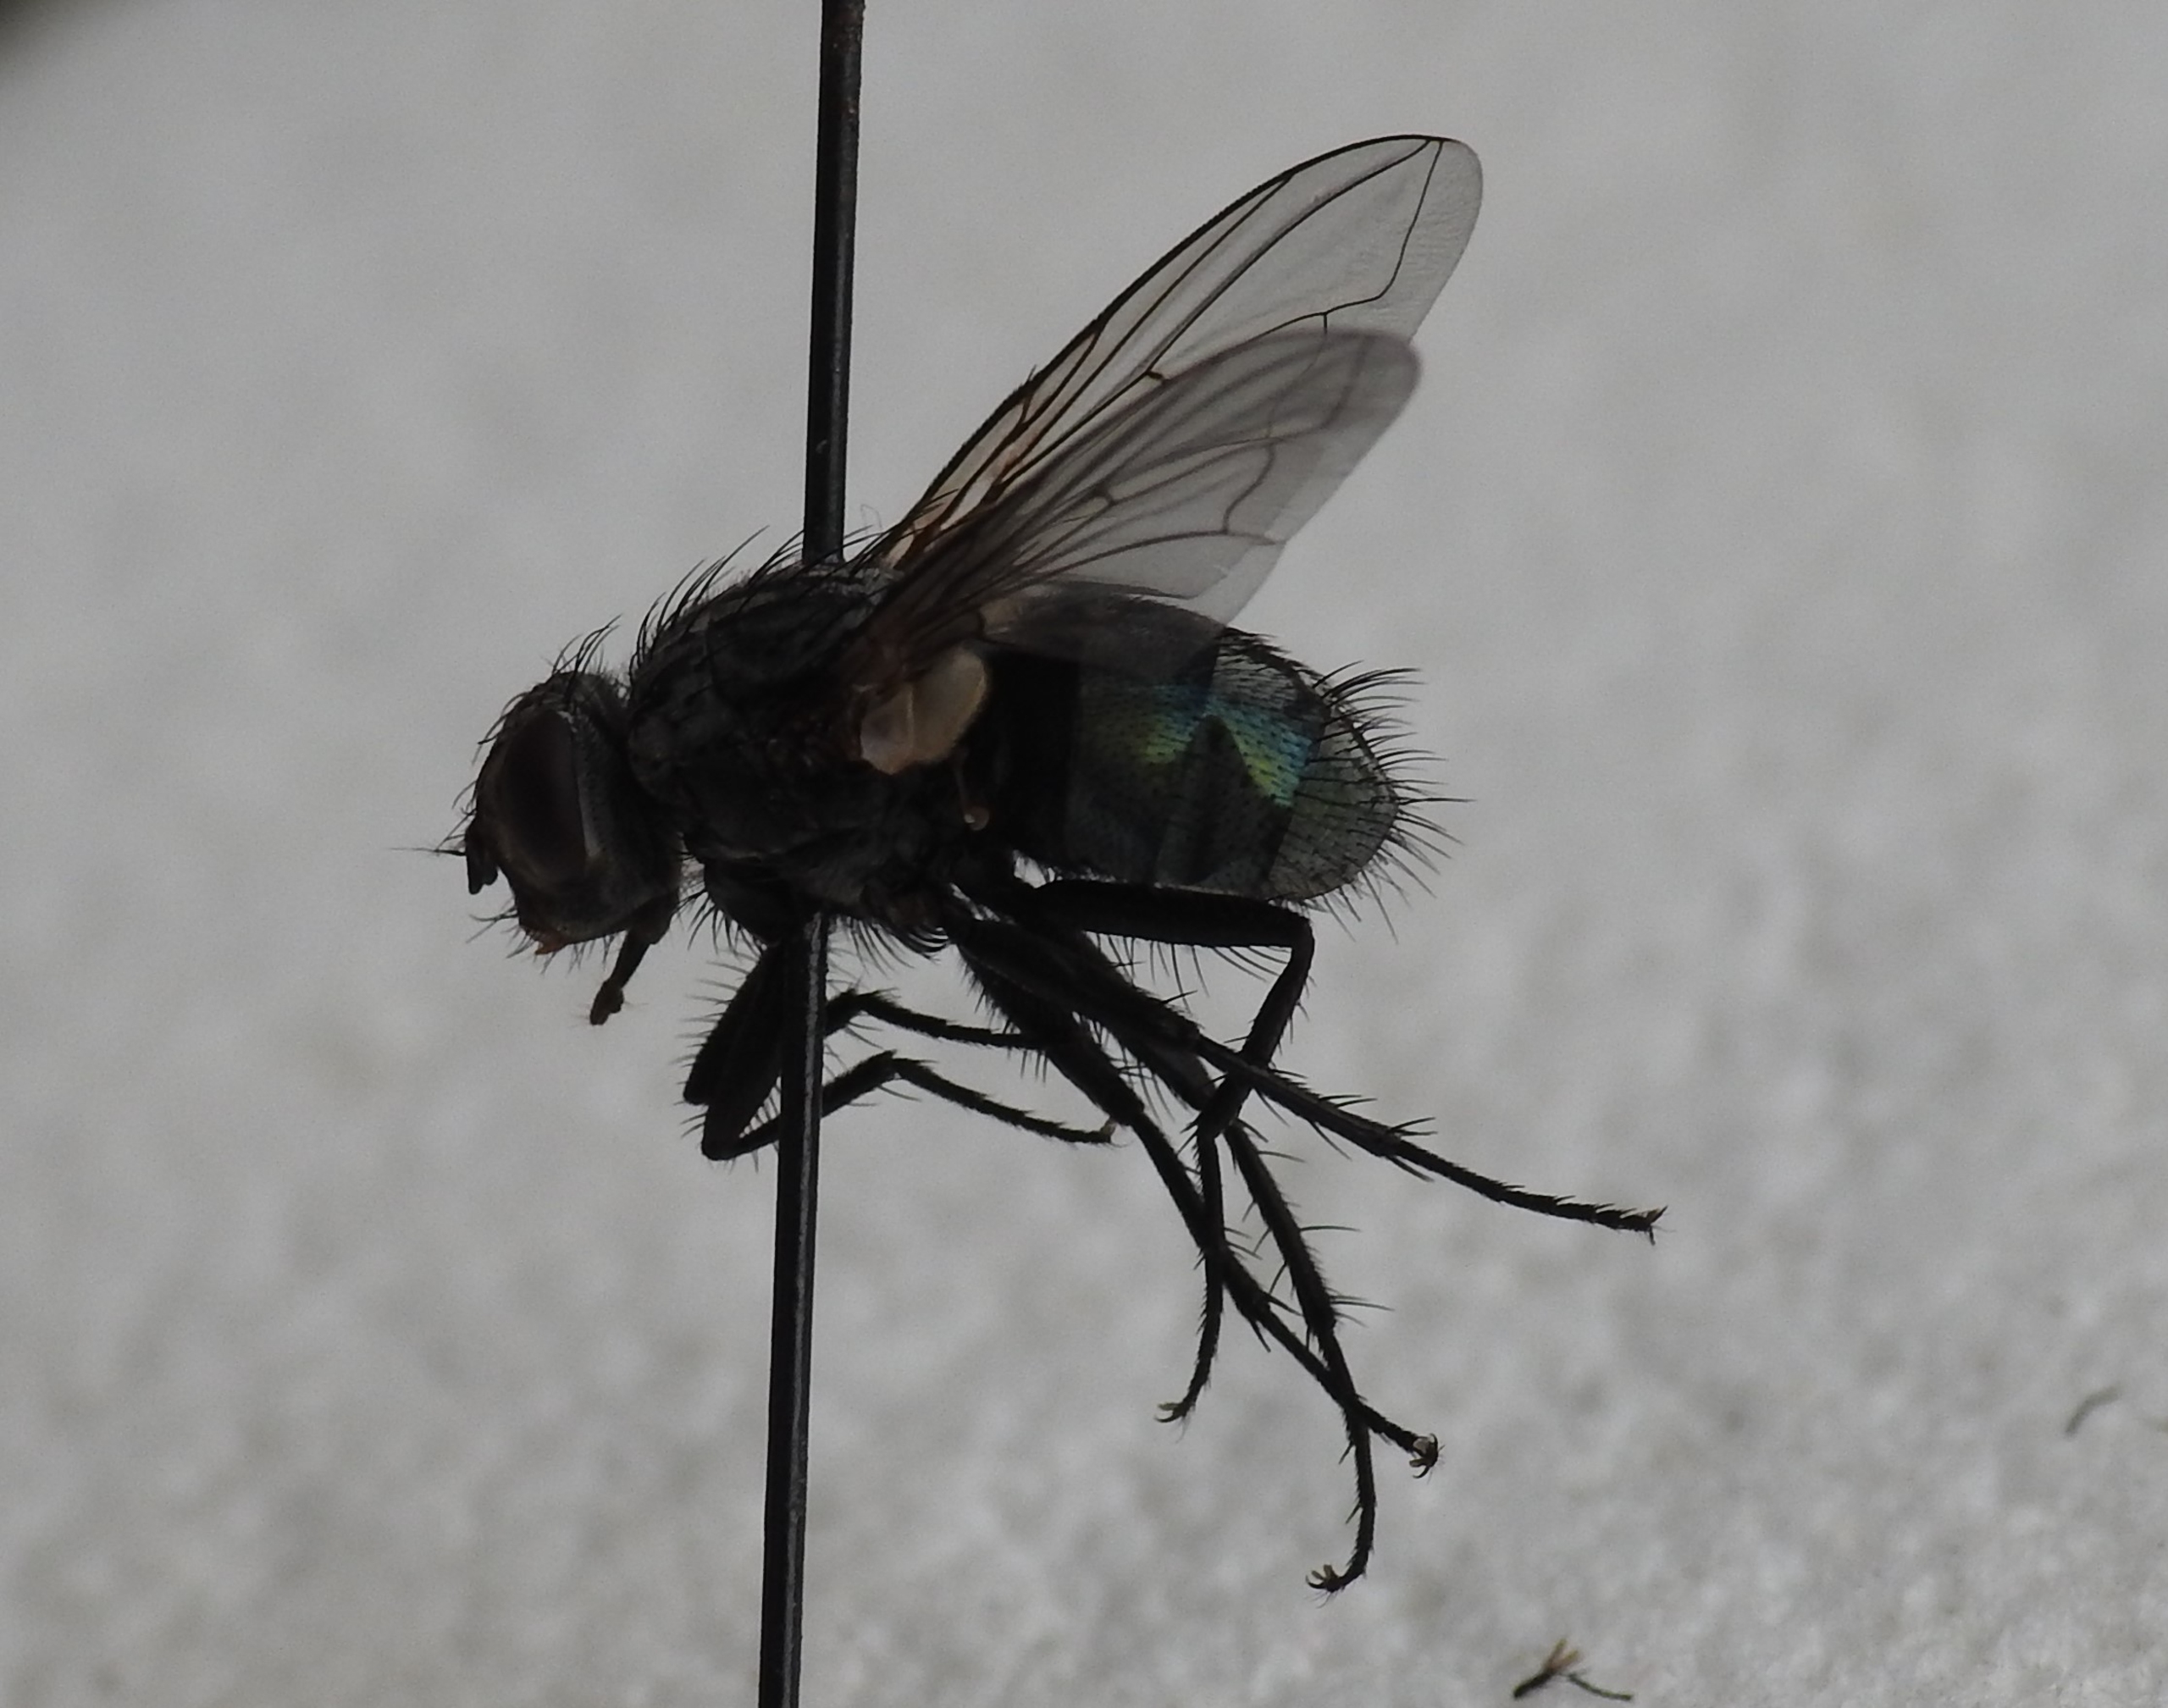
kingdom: Animalia
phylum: Arthropoda
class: Insecta
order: Diptera
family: Calliphoridae
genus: Bellardia
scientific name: Bellardia vulgaris
